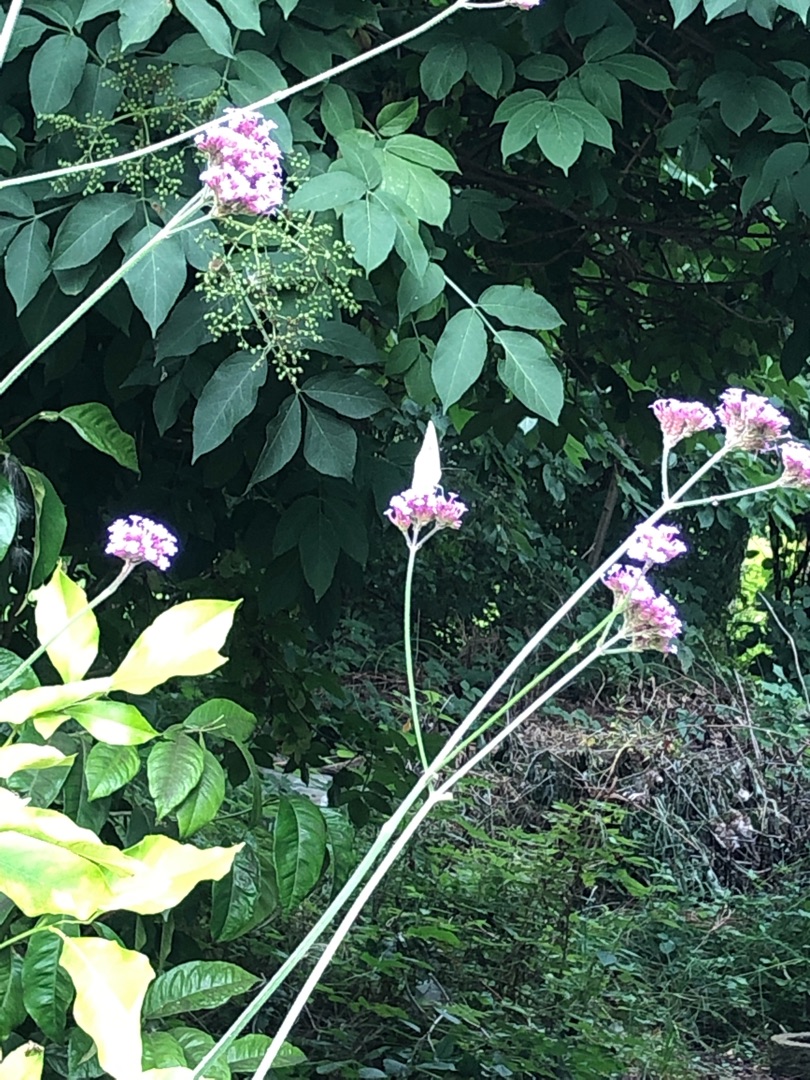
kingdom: Animalia
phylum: Arthropoda
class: Insecta
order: Lepidoptera
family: Pieridae
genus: Pieris
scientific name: Pieris brassicae
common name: Stor kålsommerfugl
